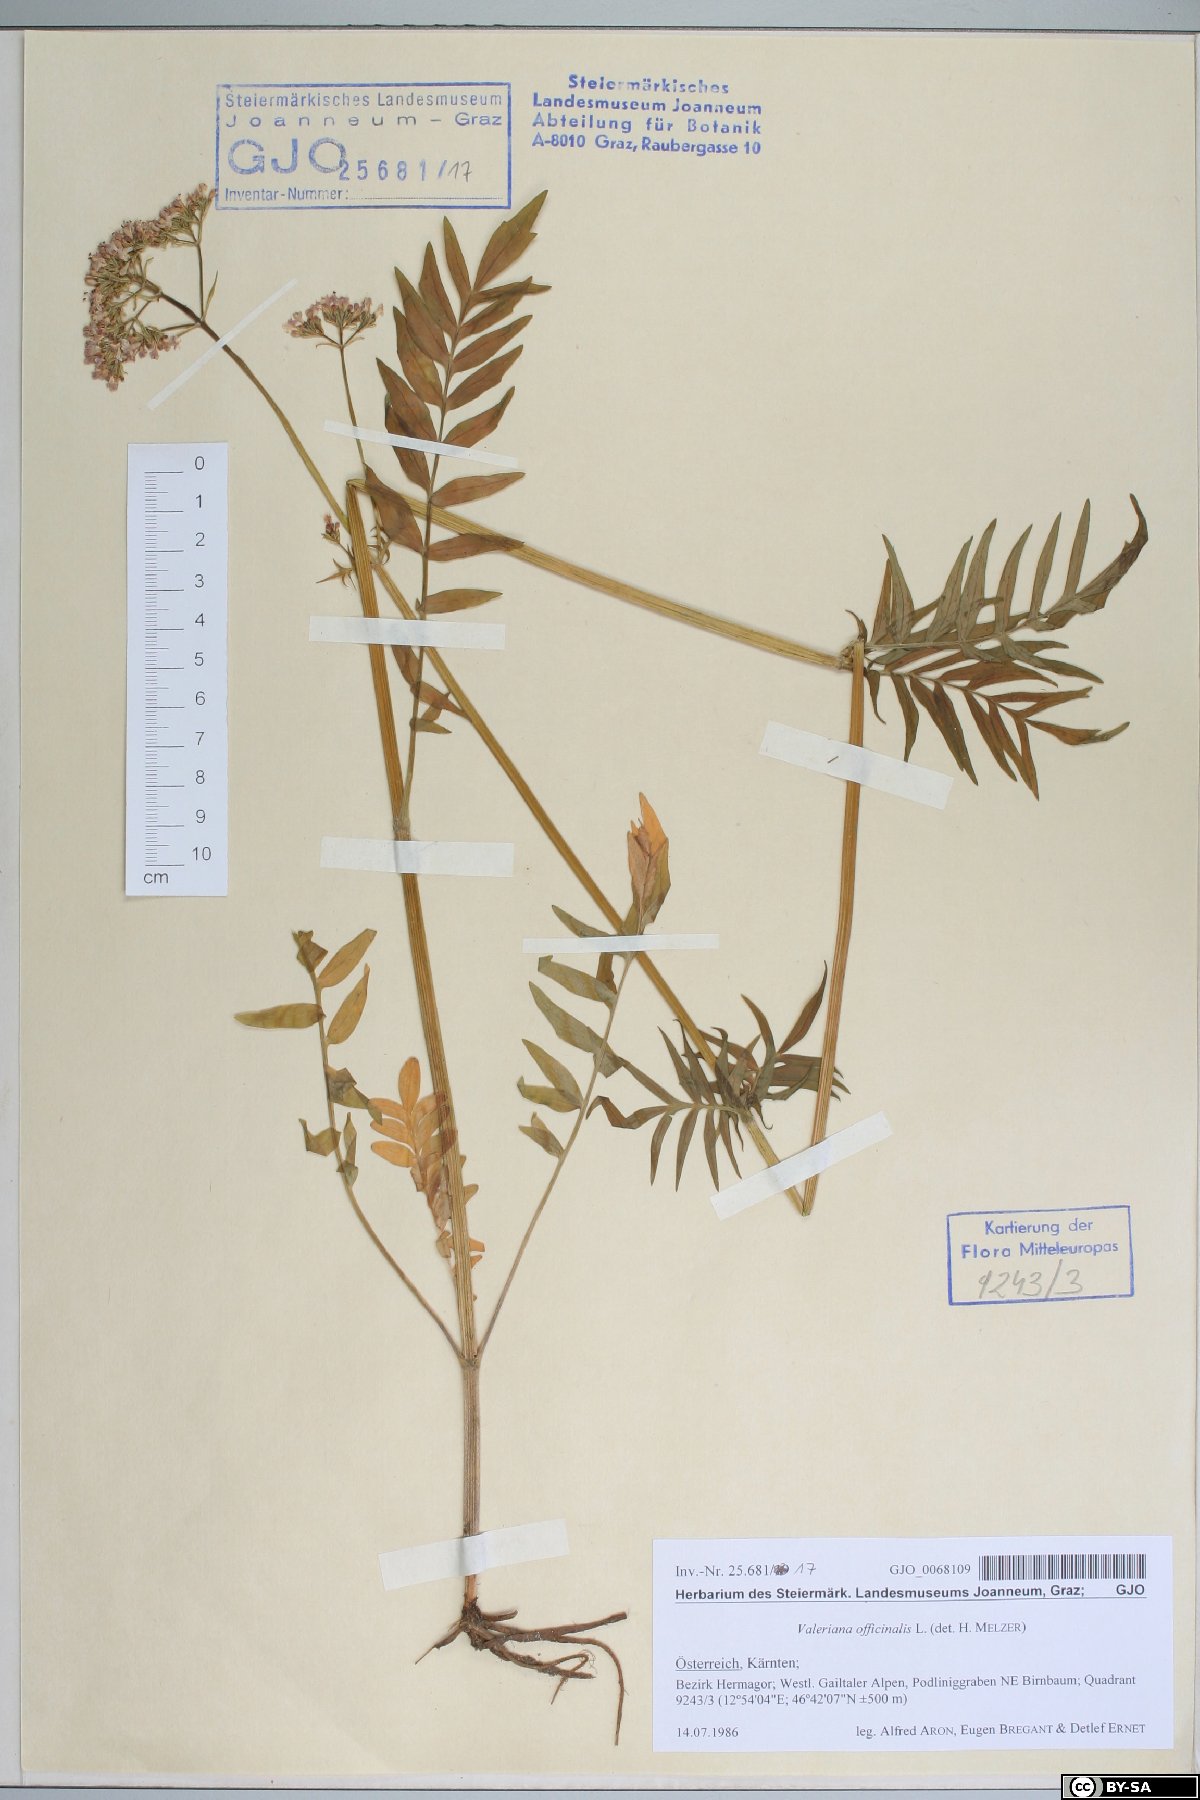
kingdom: Plantae
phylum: Tracheophyta
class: Magnoliopsida
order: Dipsacales
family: Caprifoliaceae
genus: Valeriana
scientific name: Valeriana officinalis
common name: Common valerian
